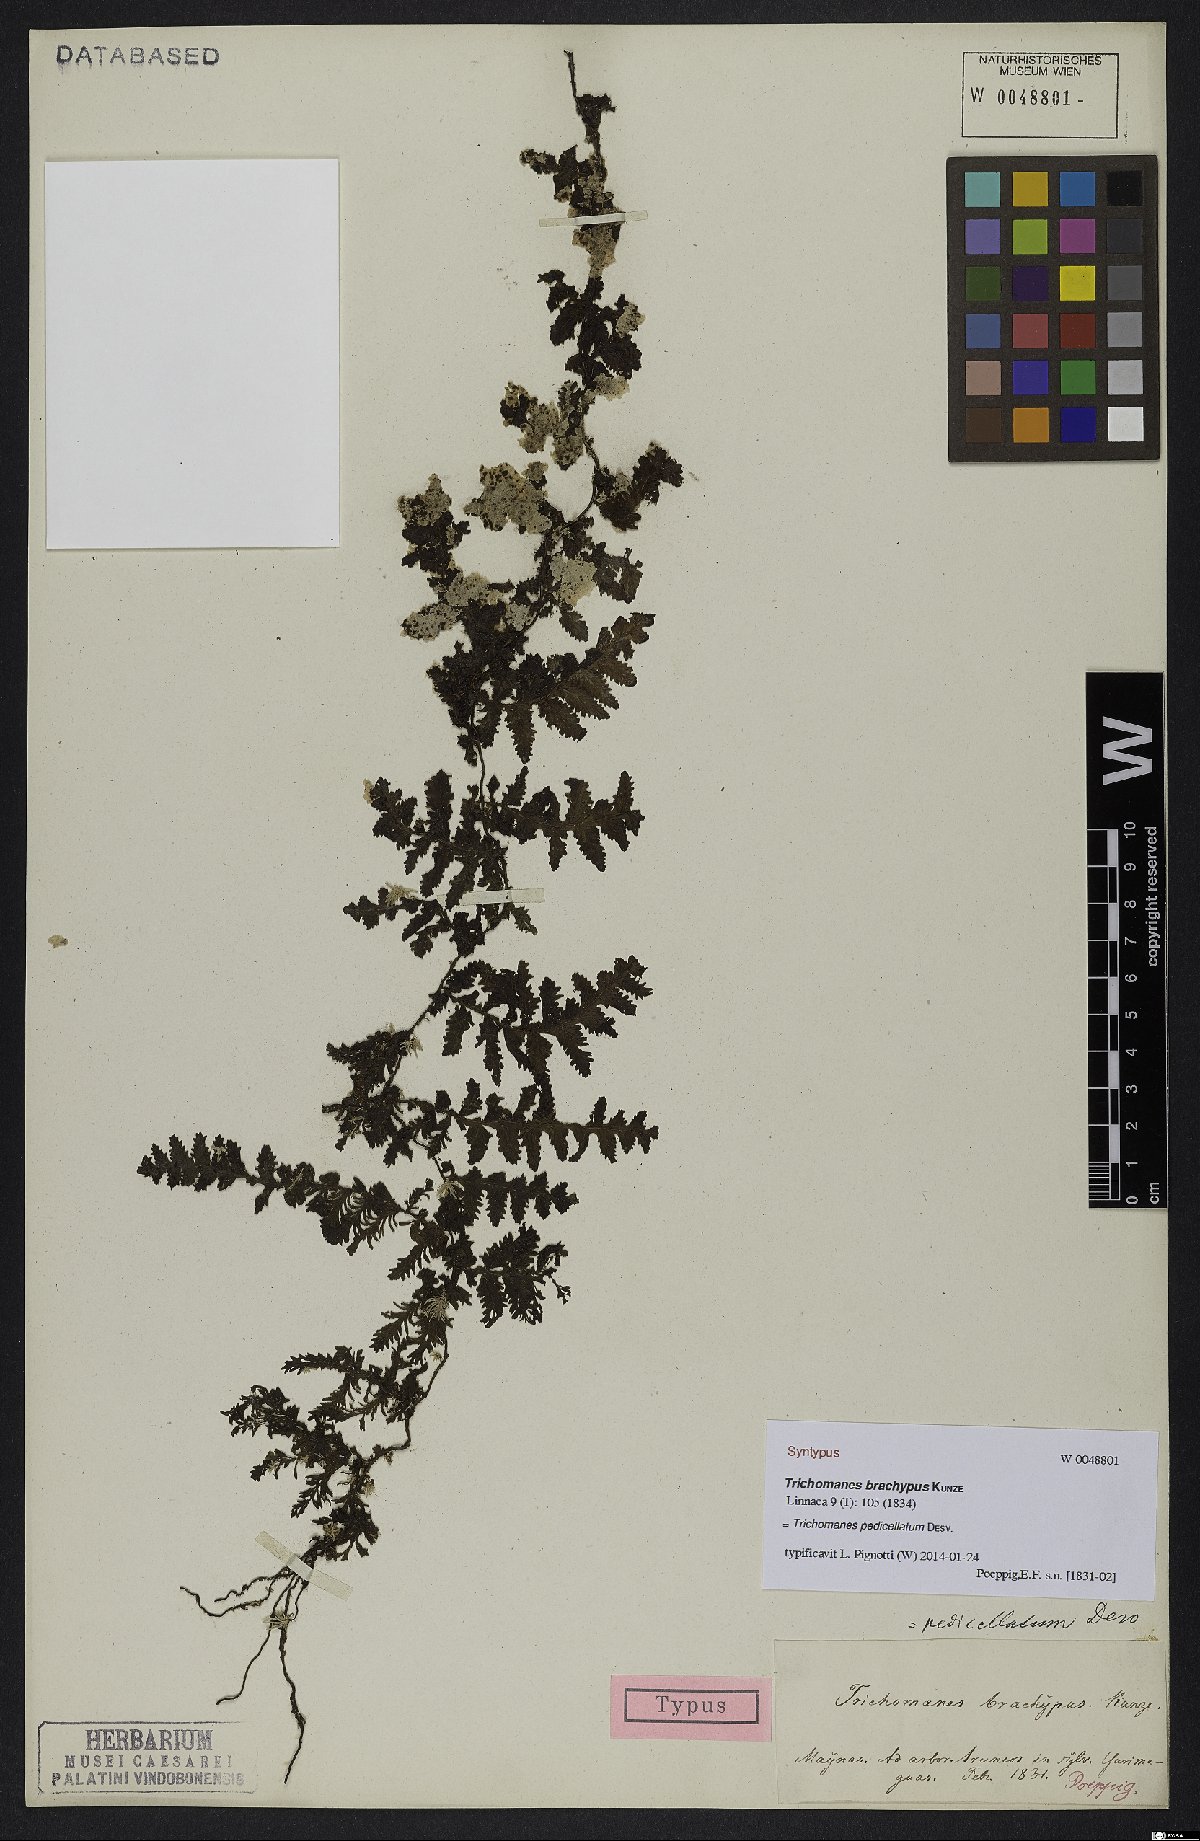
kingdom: Plantae
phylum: Tracheophyta
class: Polypodiopsida
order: Hymenophyllales
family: Hymenophyllaceae
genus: Trichomanes
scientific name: Trichomanes pedicellatum
